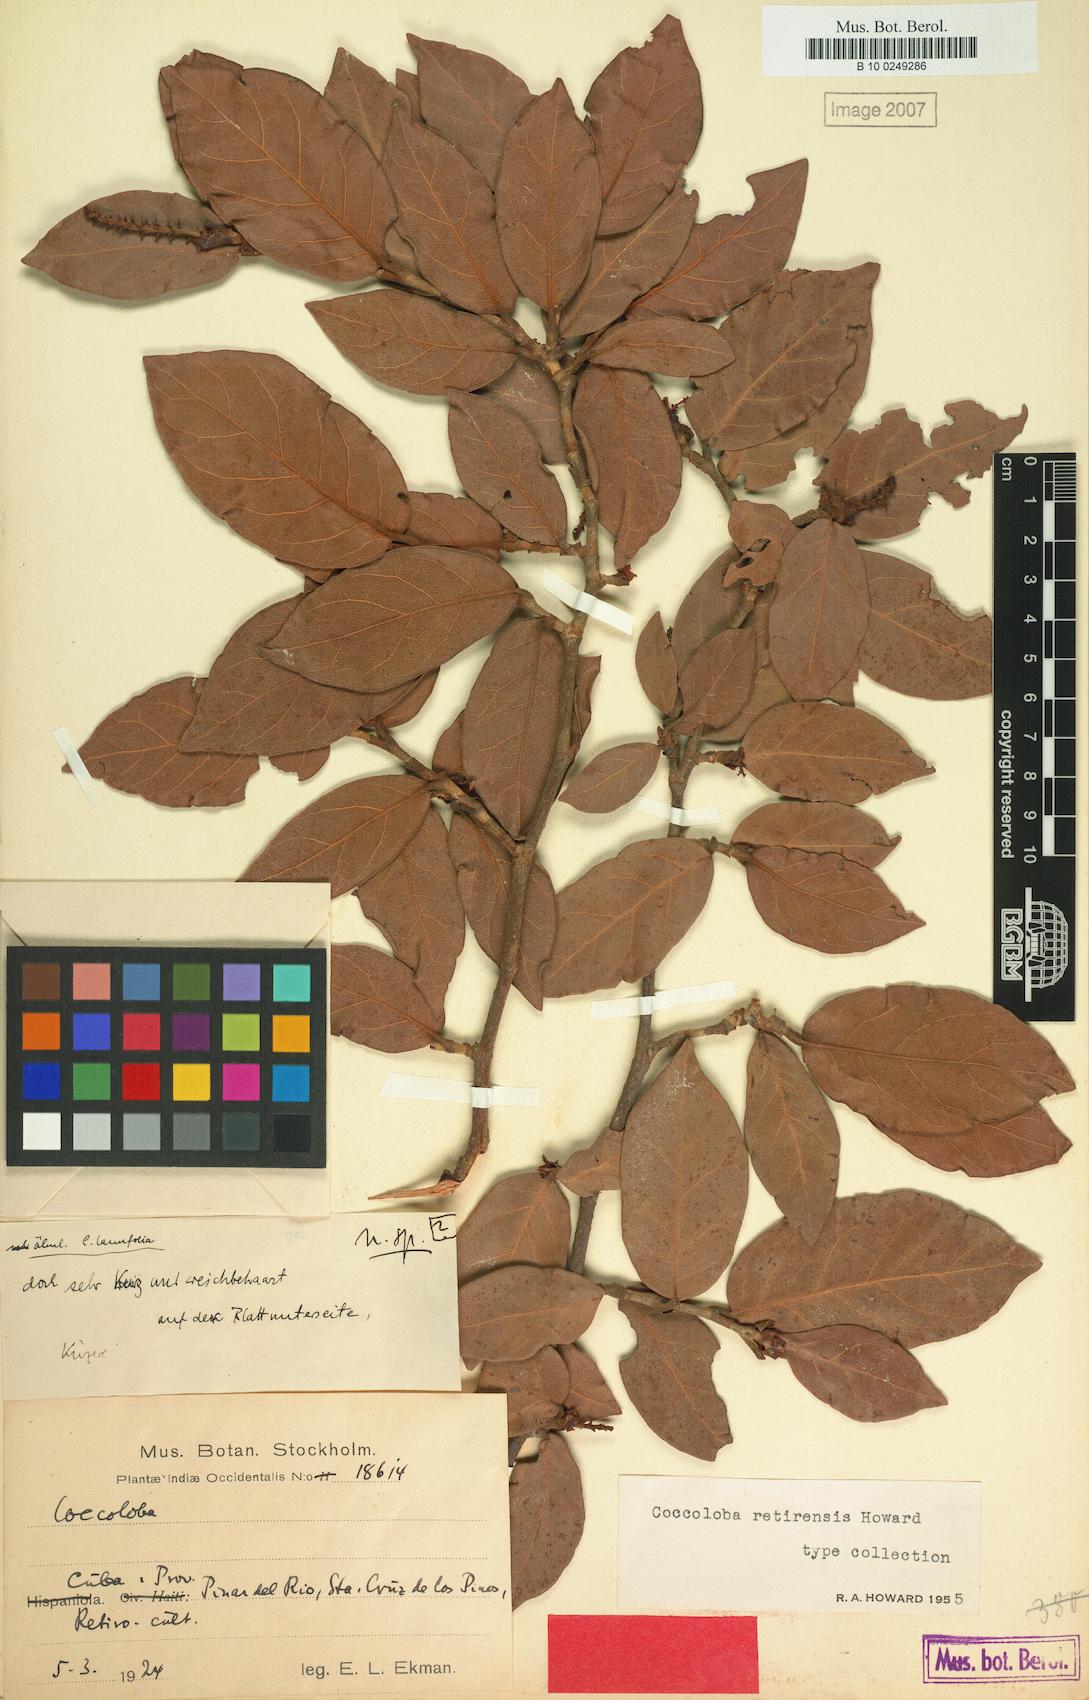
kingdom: Plantae
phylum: Tracheophyta
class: Magnoliopsida
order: Caryophyllales
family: Polygonaceae
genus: Coccoloba
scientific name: Coccoloba retirensis
